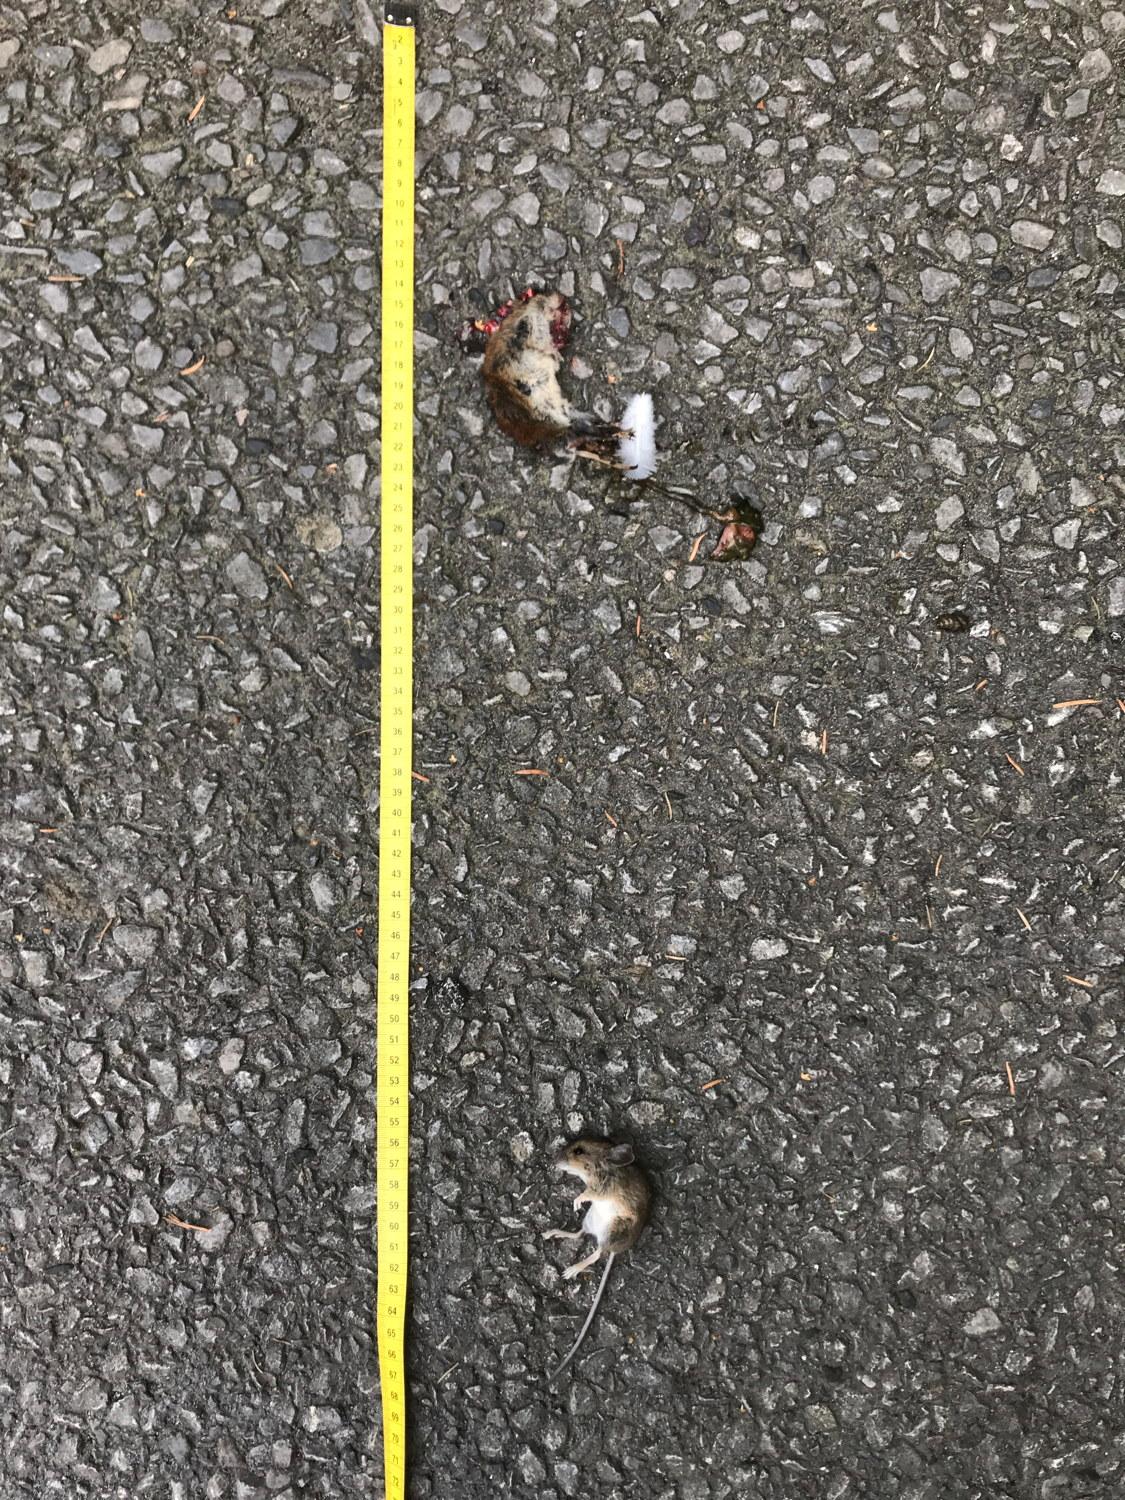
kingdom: Animalia
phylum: Chordata
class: Mammalia
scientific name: Mammalia
